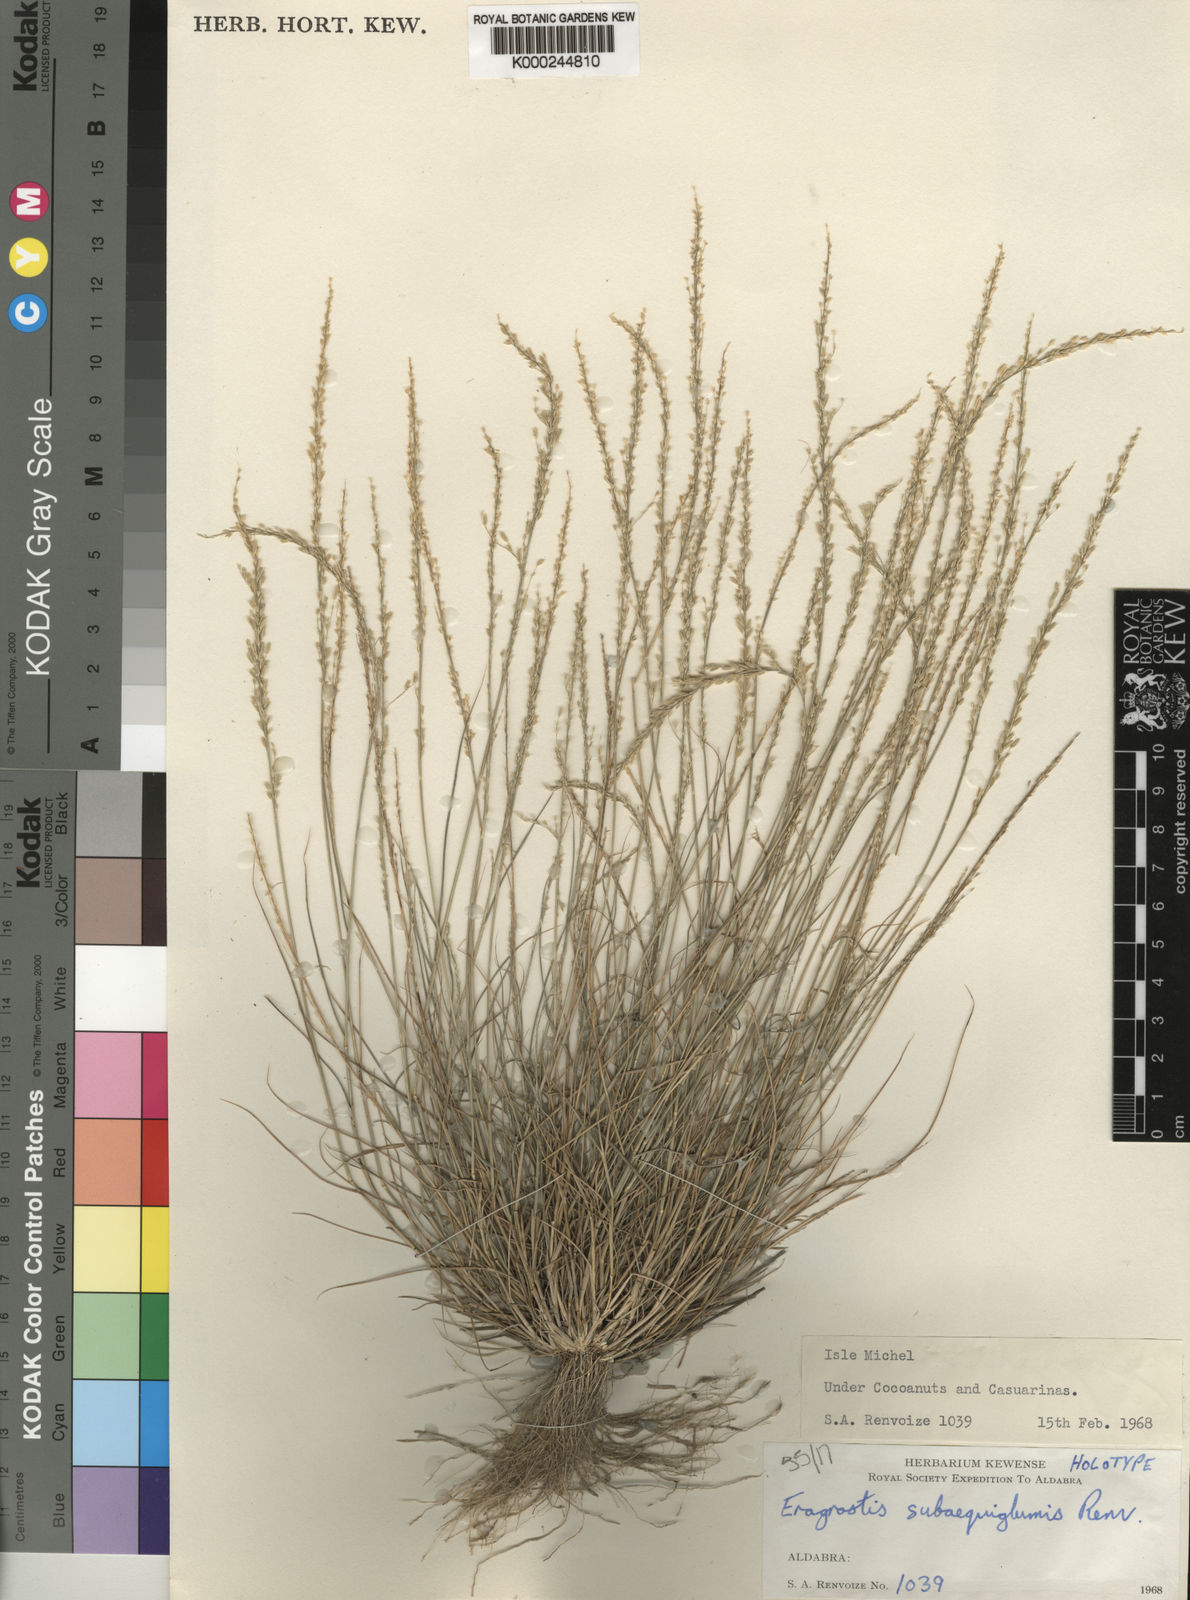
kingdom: Plantae
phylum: Tracheophyta
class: Liliopsida
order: Poales
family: Poaceae
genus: Eragrostis
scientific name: Eragrostis subaequiglumis
